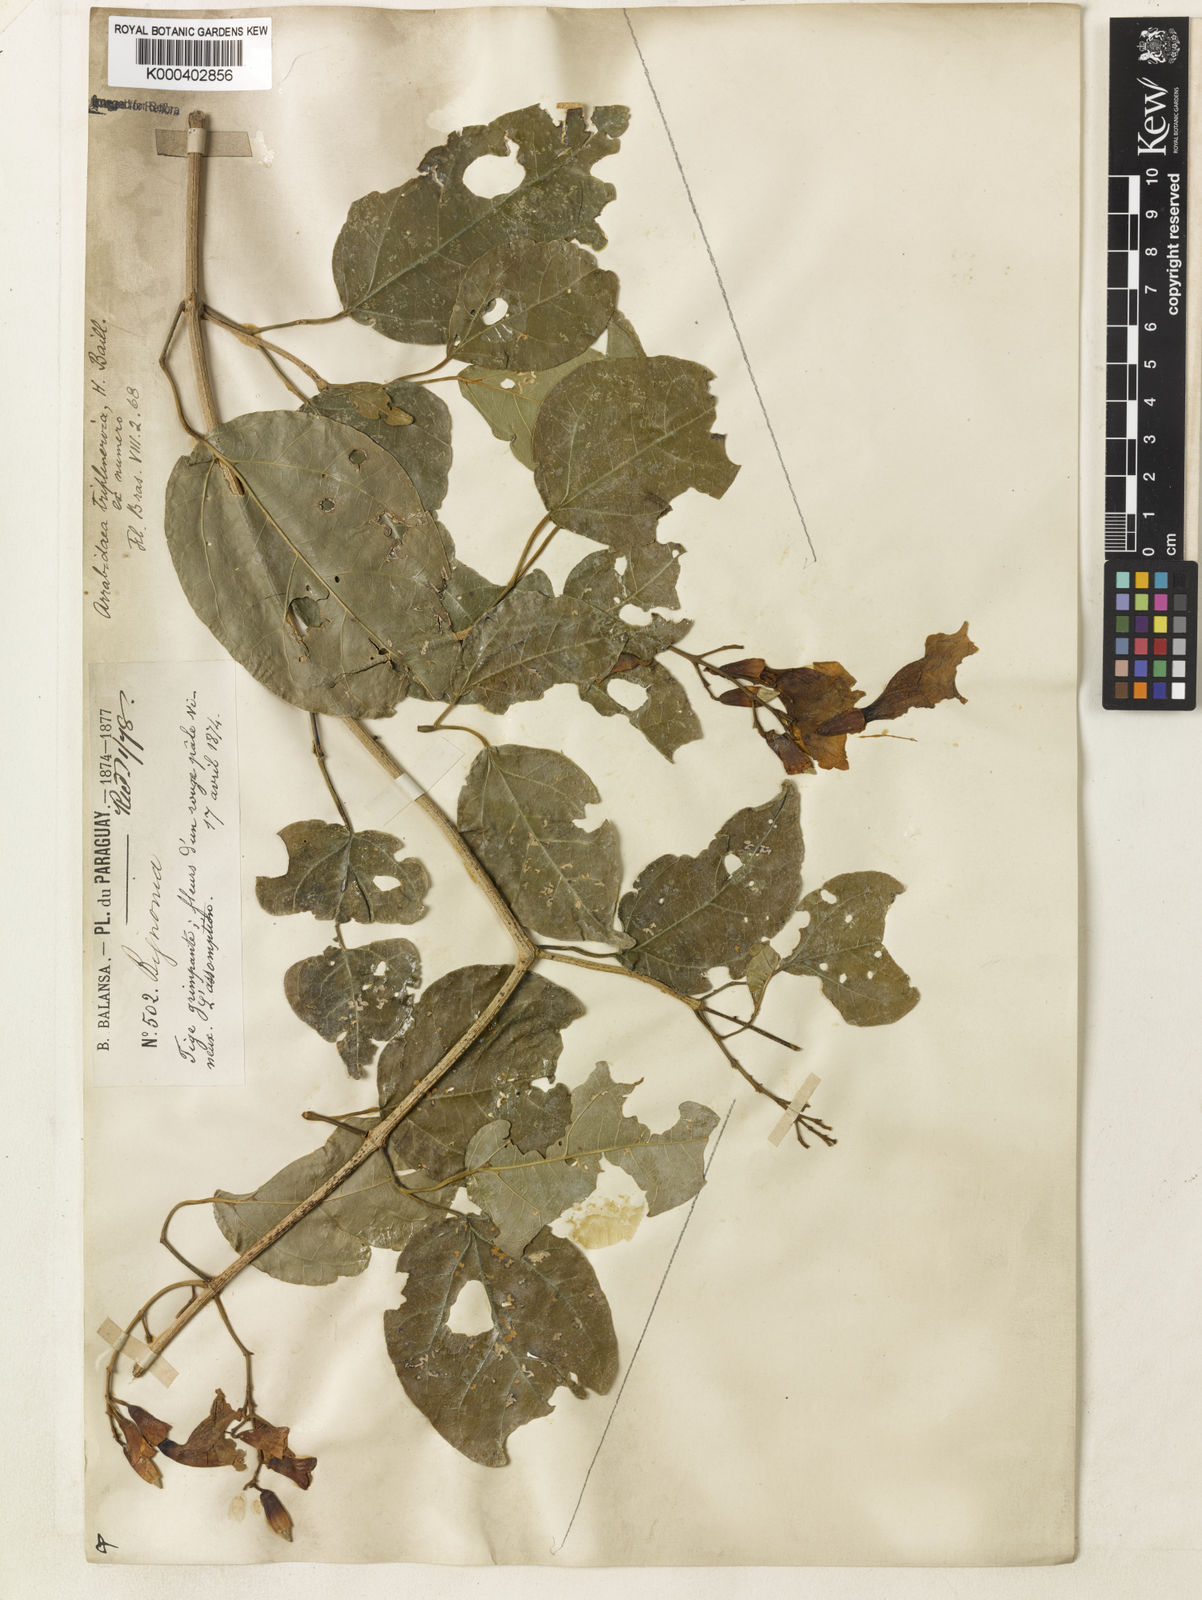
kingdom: Plantae
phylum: Tracheophyta
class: Magnoliopsida
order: Lamiales
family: Bignoniaceae
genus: Fridericia
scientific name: Fridericia triplinervia
